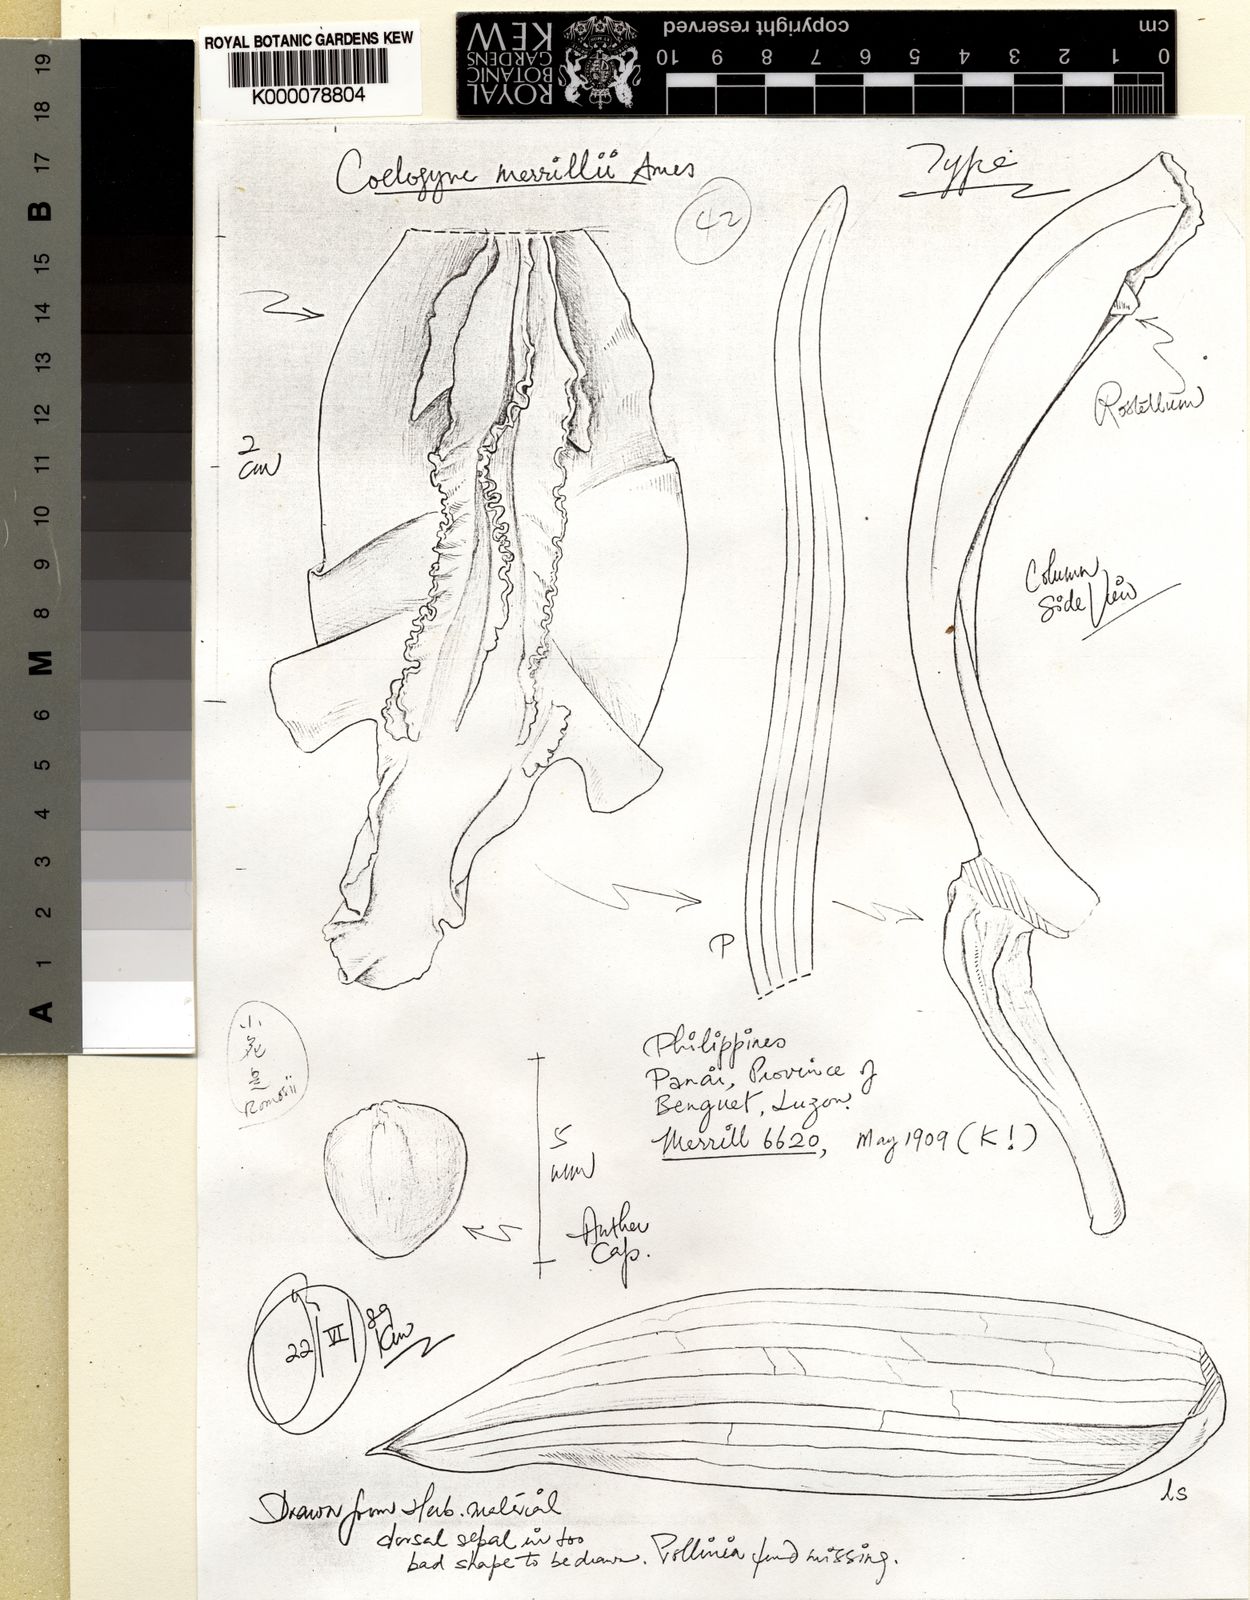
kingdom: Plantae
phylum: Tracheophyta
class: Liliopsida
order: Asparagales
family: Orchidaceae
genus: Coelogyne
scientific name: Coelogyne merrillii
